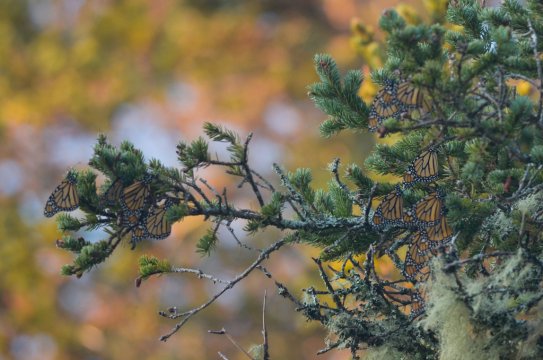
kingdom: Animalia
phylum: Arthropoda
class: Insecta
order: Lepidoptera
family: Nymphalidae
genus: Danaus
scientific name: Danaus plexippus
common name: Monarch
